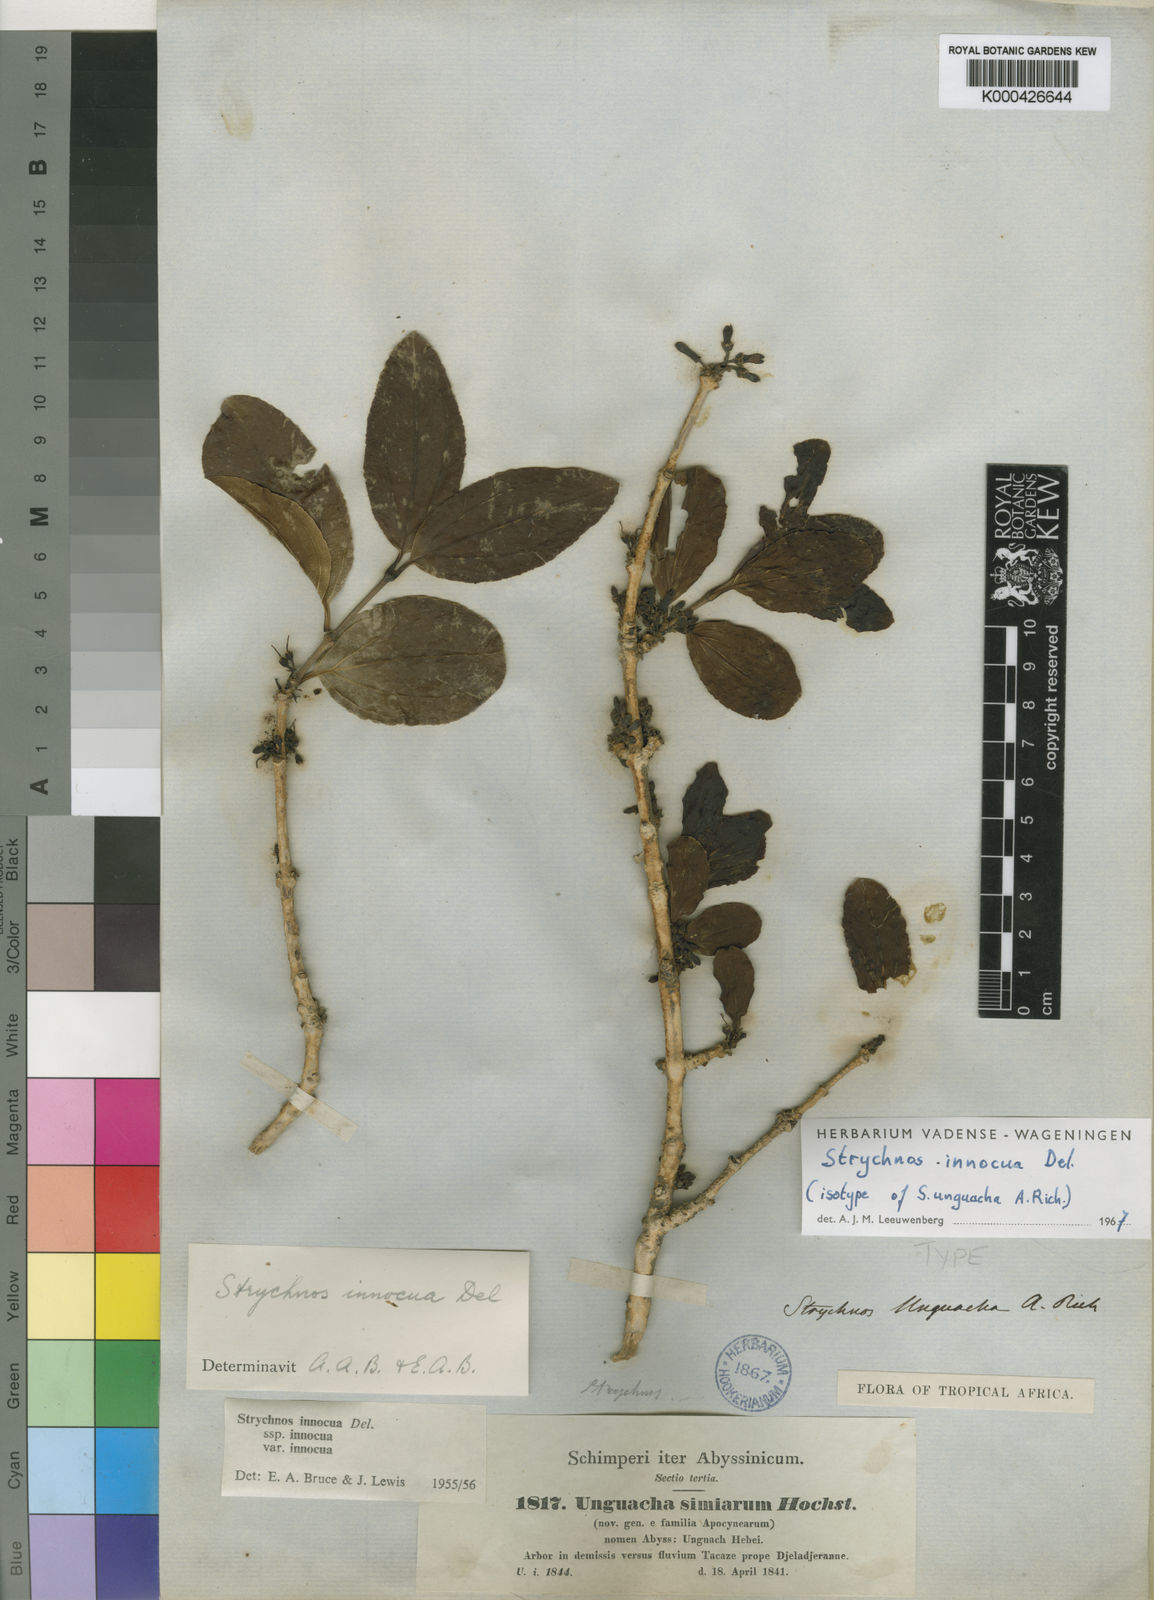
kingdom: Plantae
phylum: Tracheophyta
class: Magnoliopsida
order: Gentianales
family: Loganiaceae
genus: Strychnos
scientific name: Strychnos innocua
